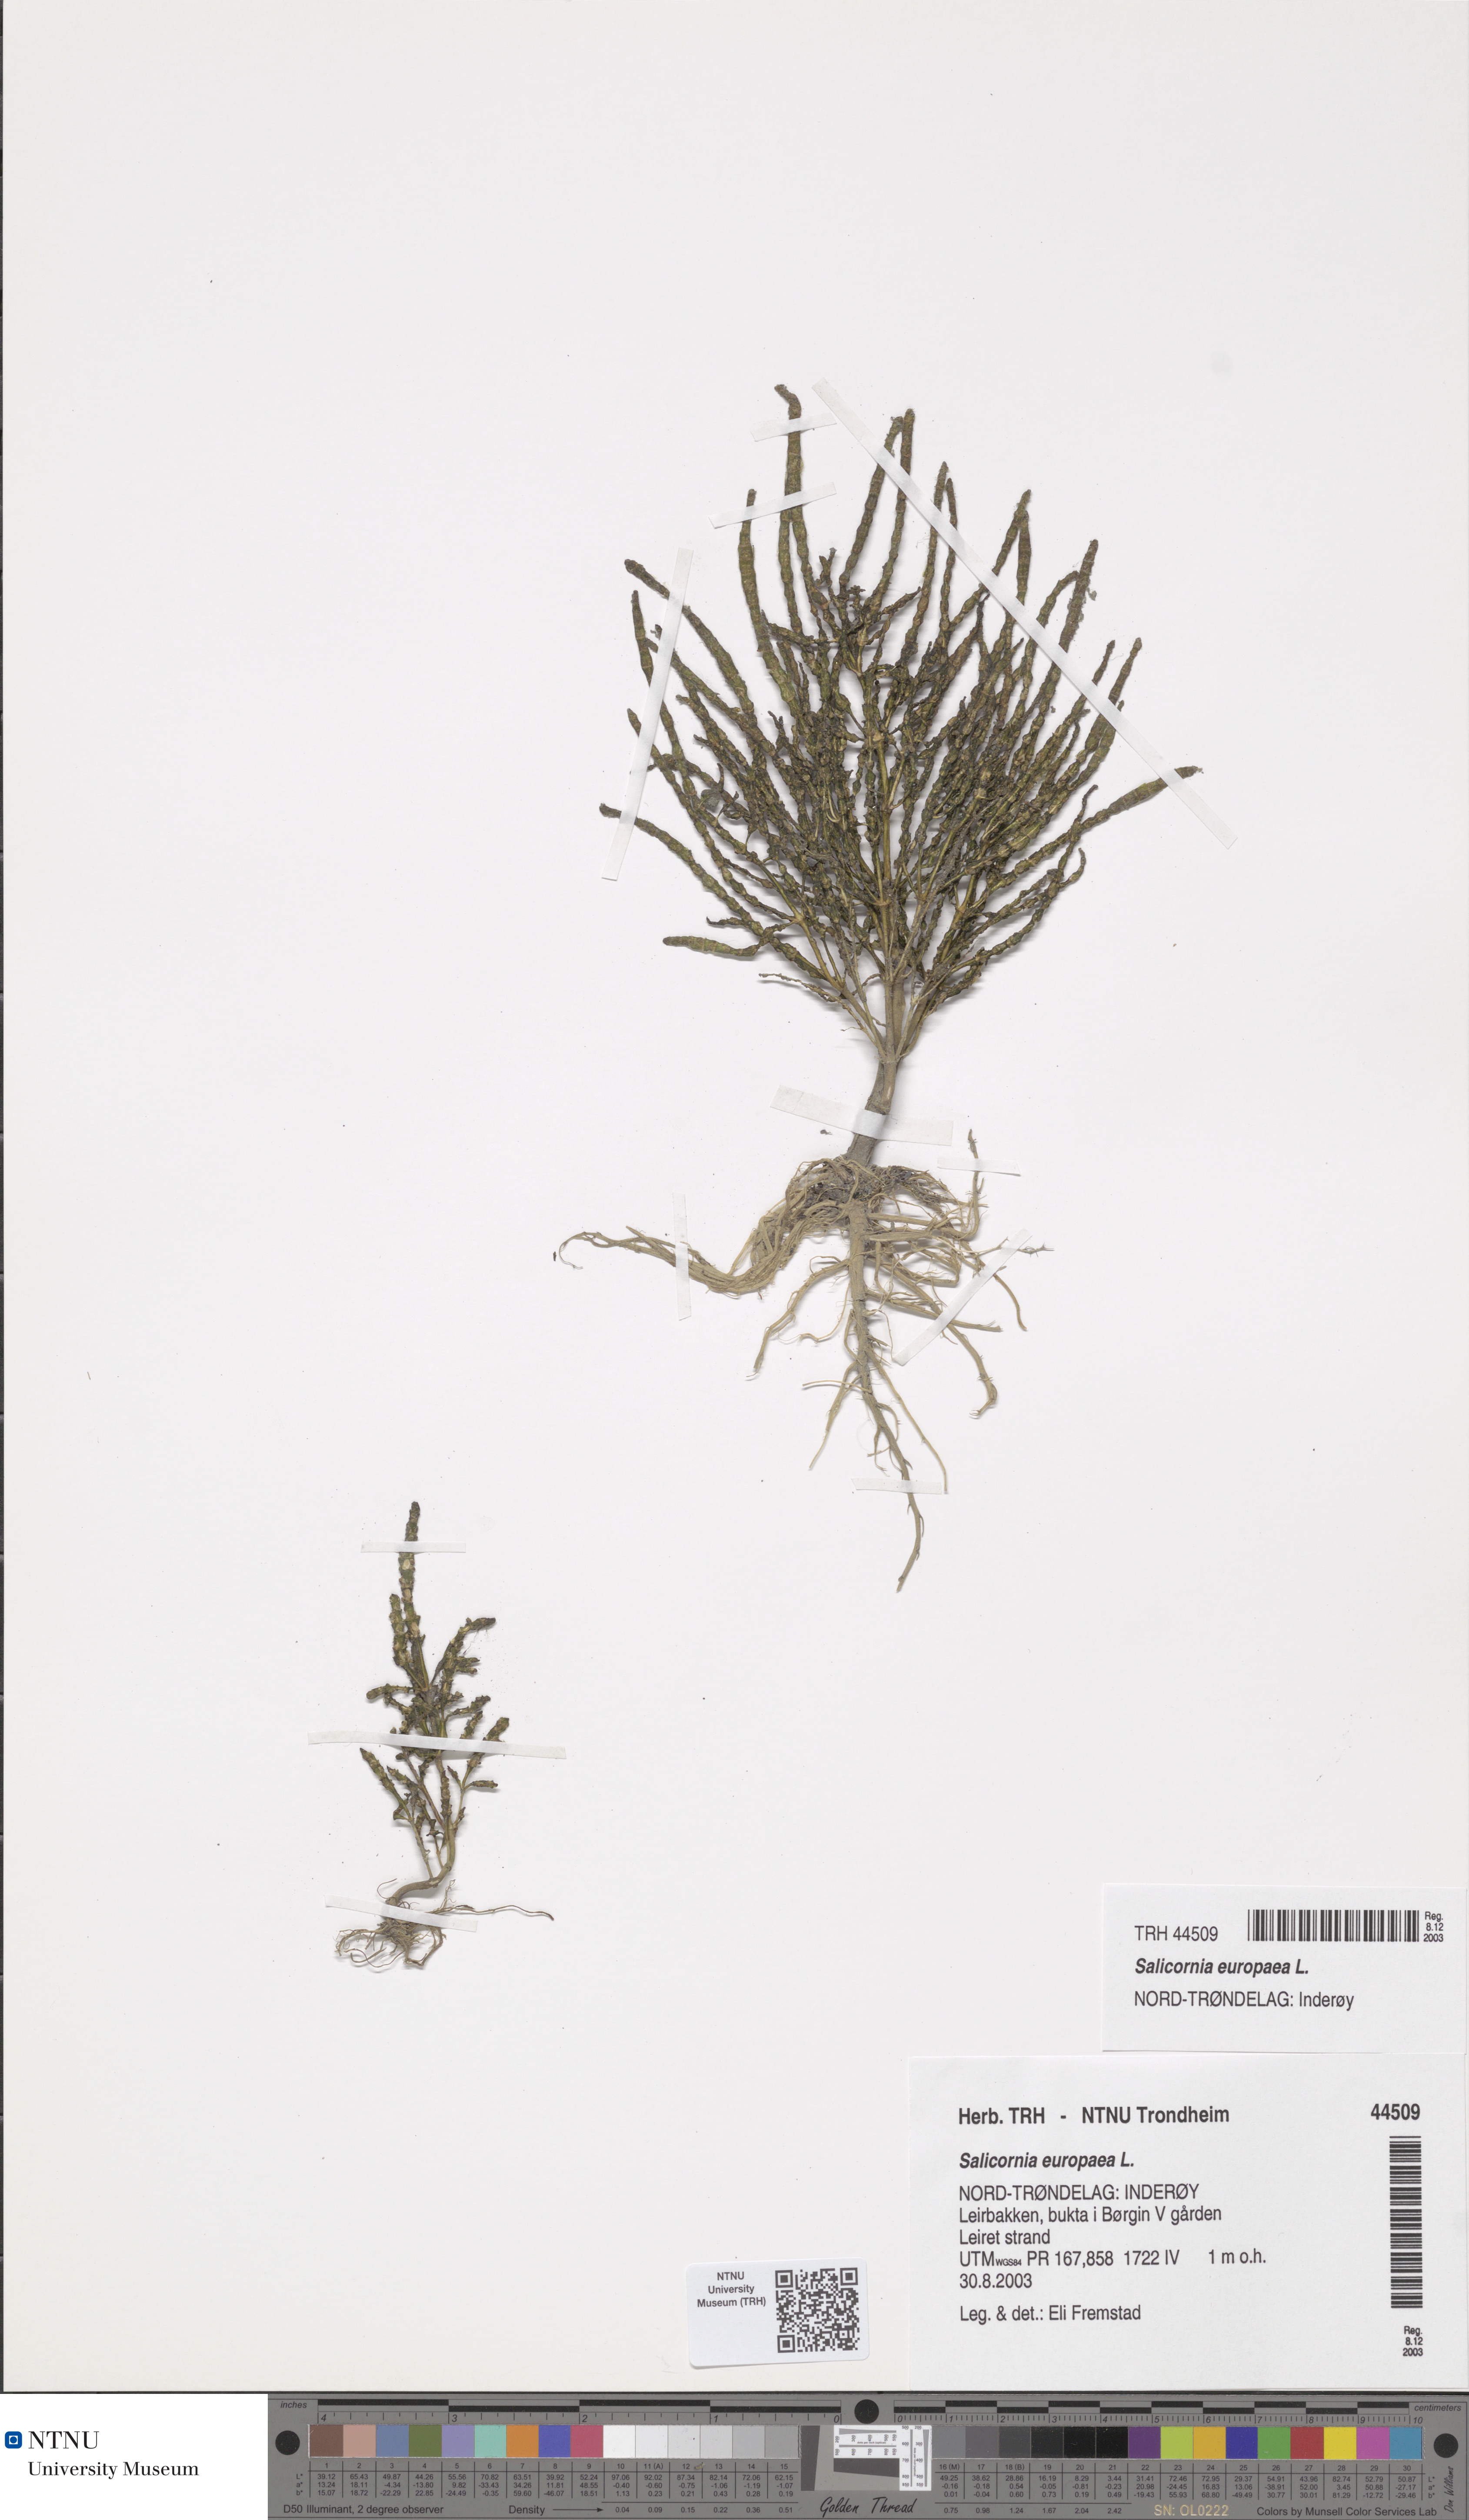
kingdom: Plantae
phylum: Tracheophyta
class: Magnoliopsida
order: Caryophyllales
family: Amaranthaceae
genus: Salicornia
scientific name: Salicornia europaea
